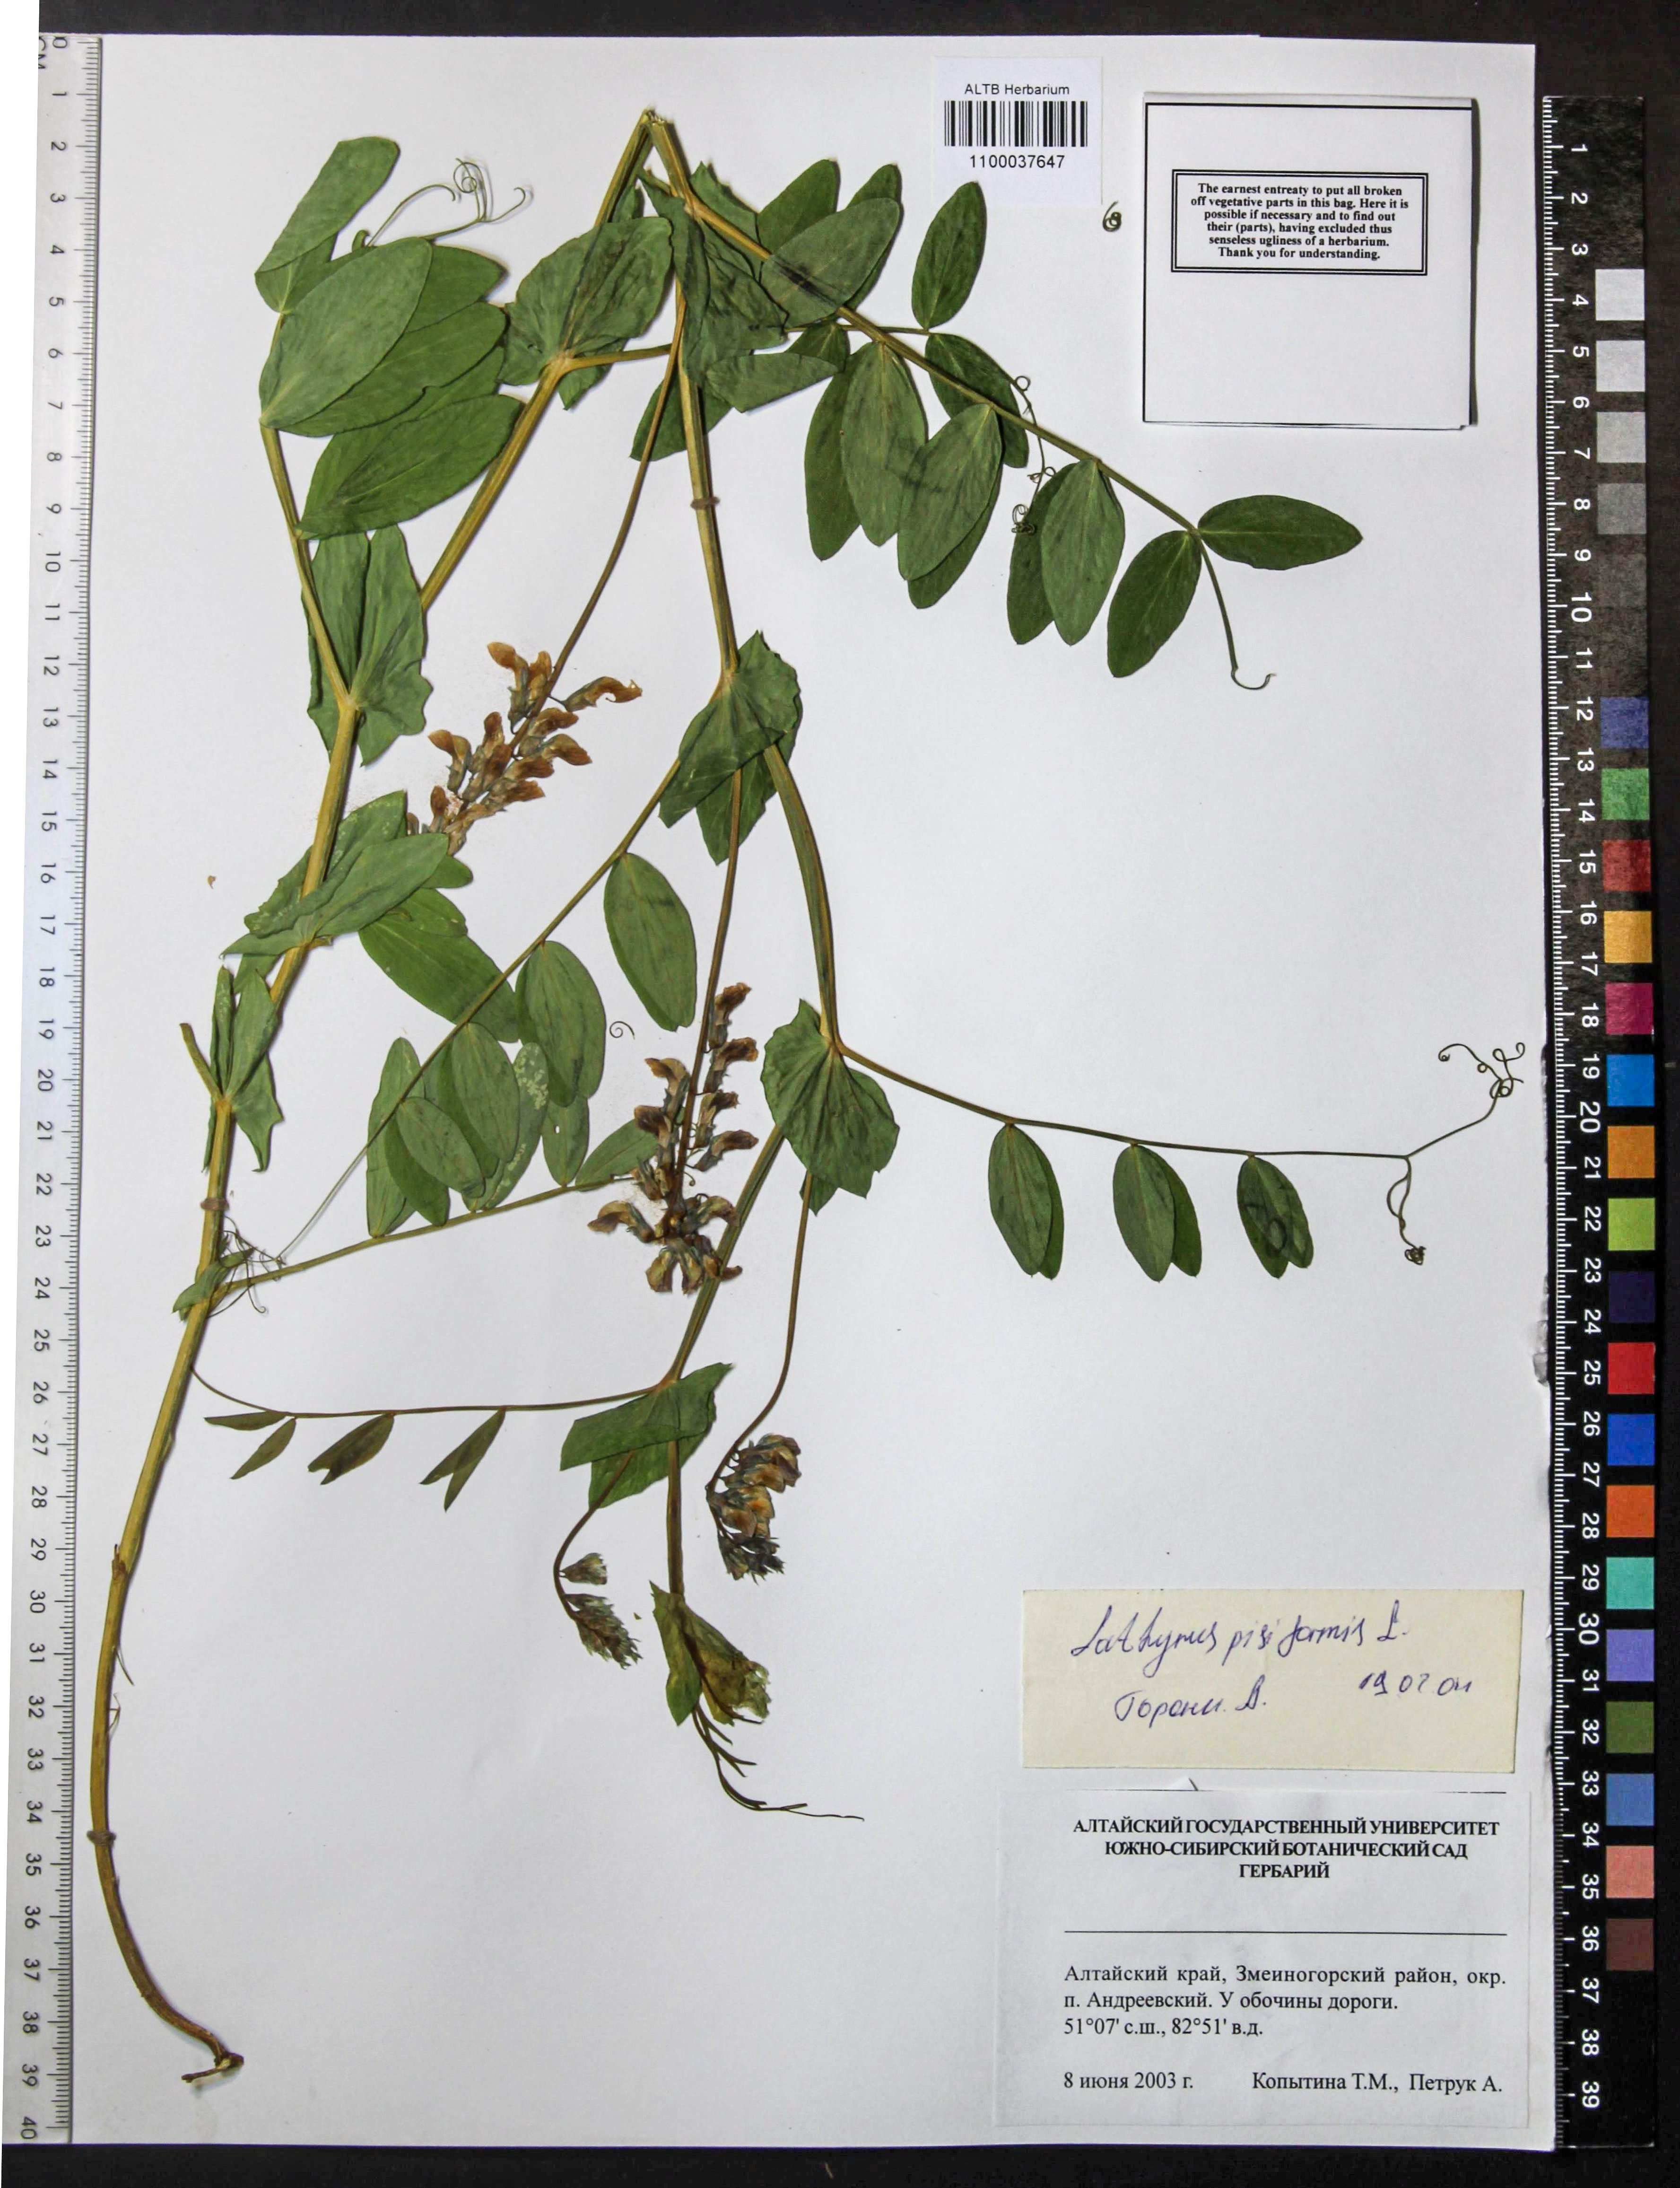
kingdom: Plantae
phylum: Tracheophyta
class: Magnoliopsida
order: Fabales
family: Fabaceae
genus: Lathyrus
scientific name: Lathyrus pisiformis
